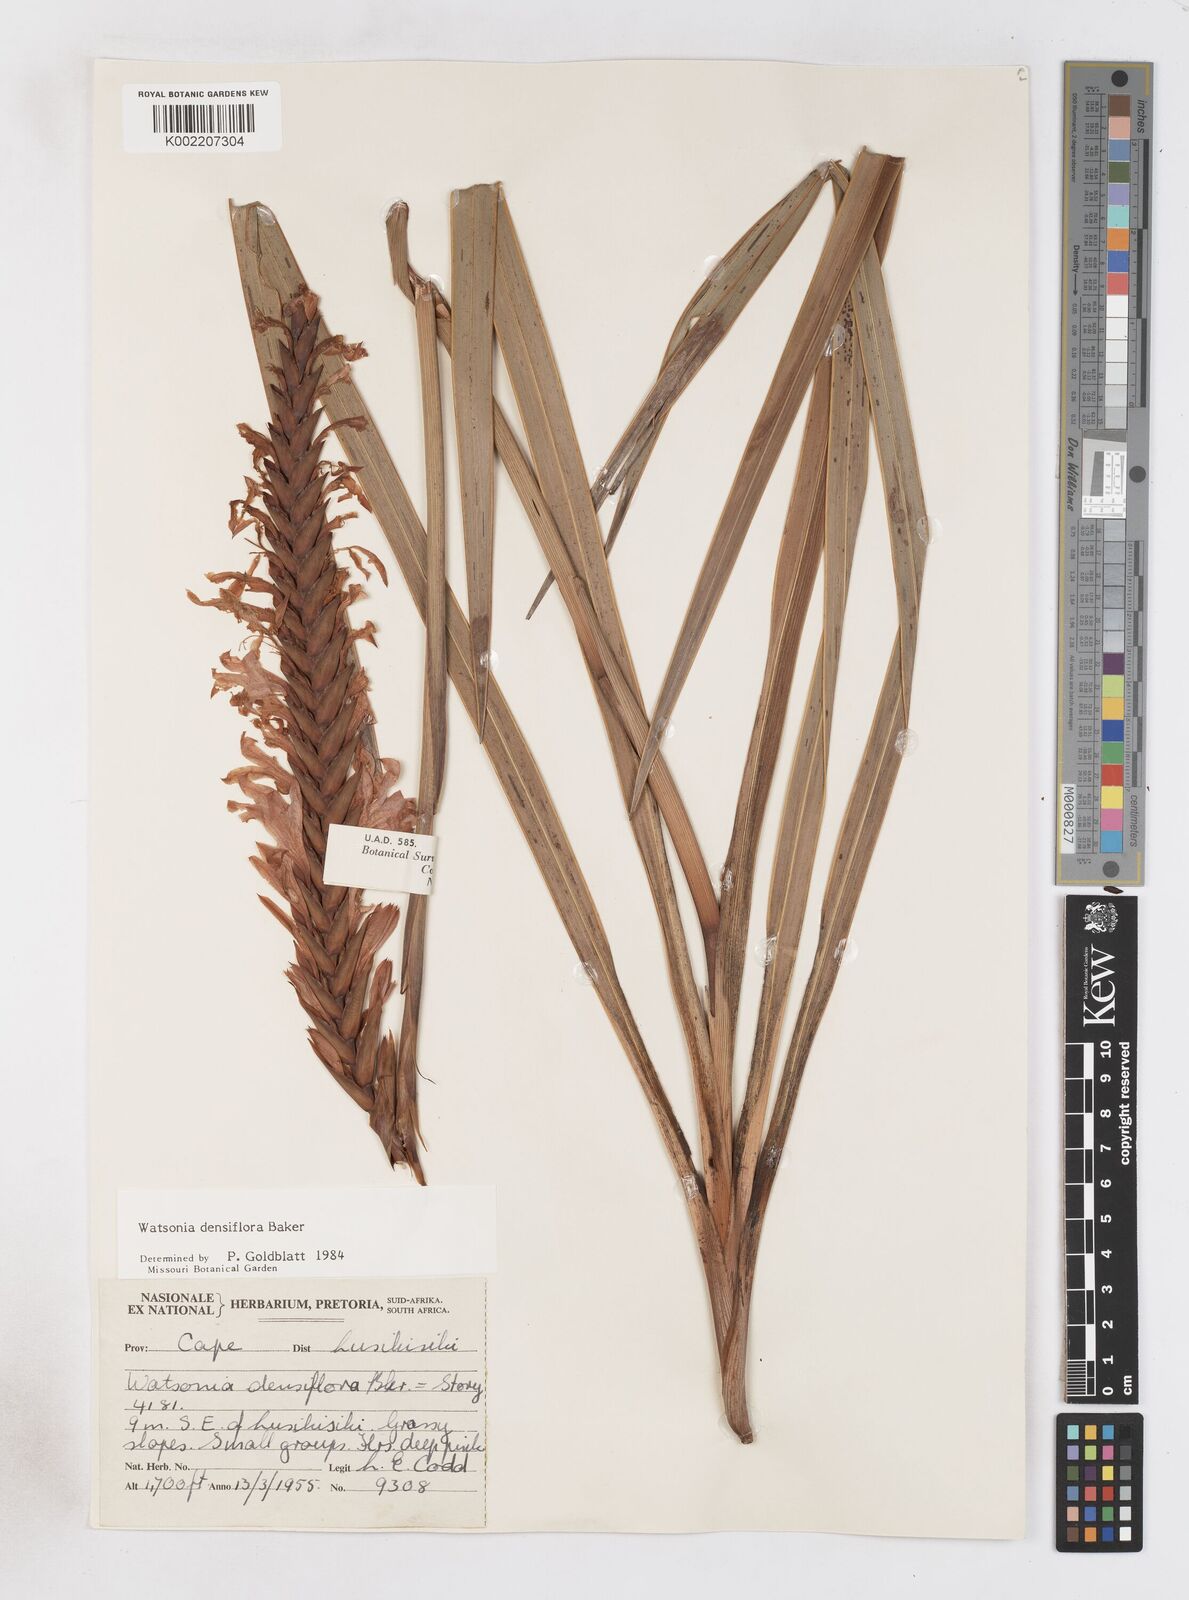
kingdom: Plantae
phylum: Tracheophyta
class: Liliopsida
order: Asparagales
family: Iridaceae
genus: Watsonia
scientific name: Watsonia densiflora
